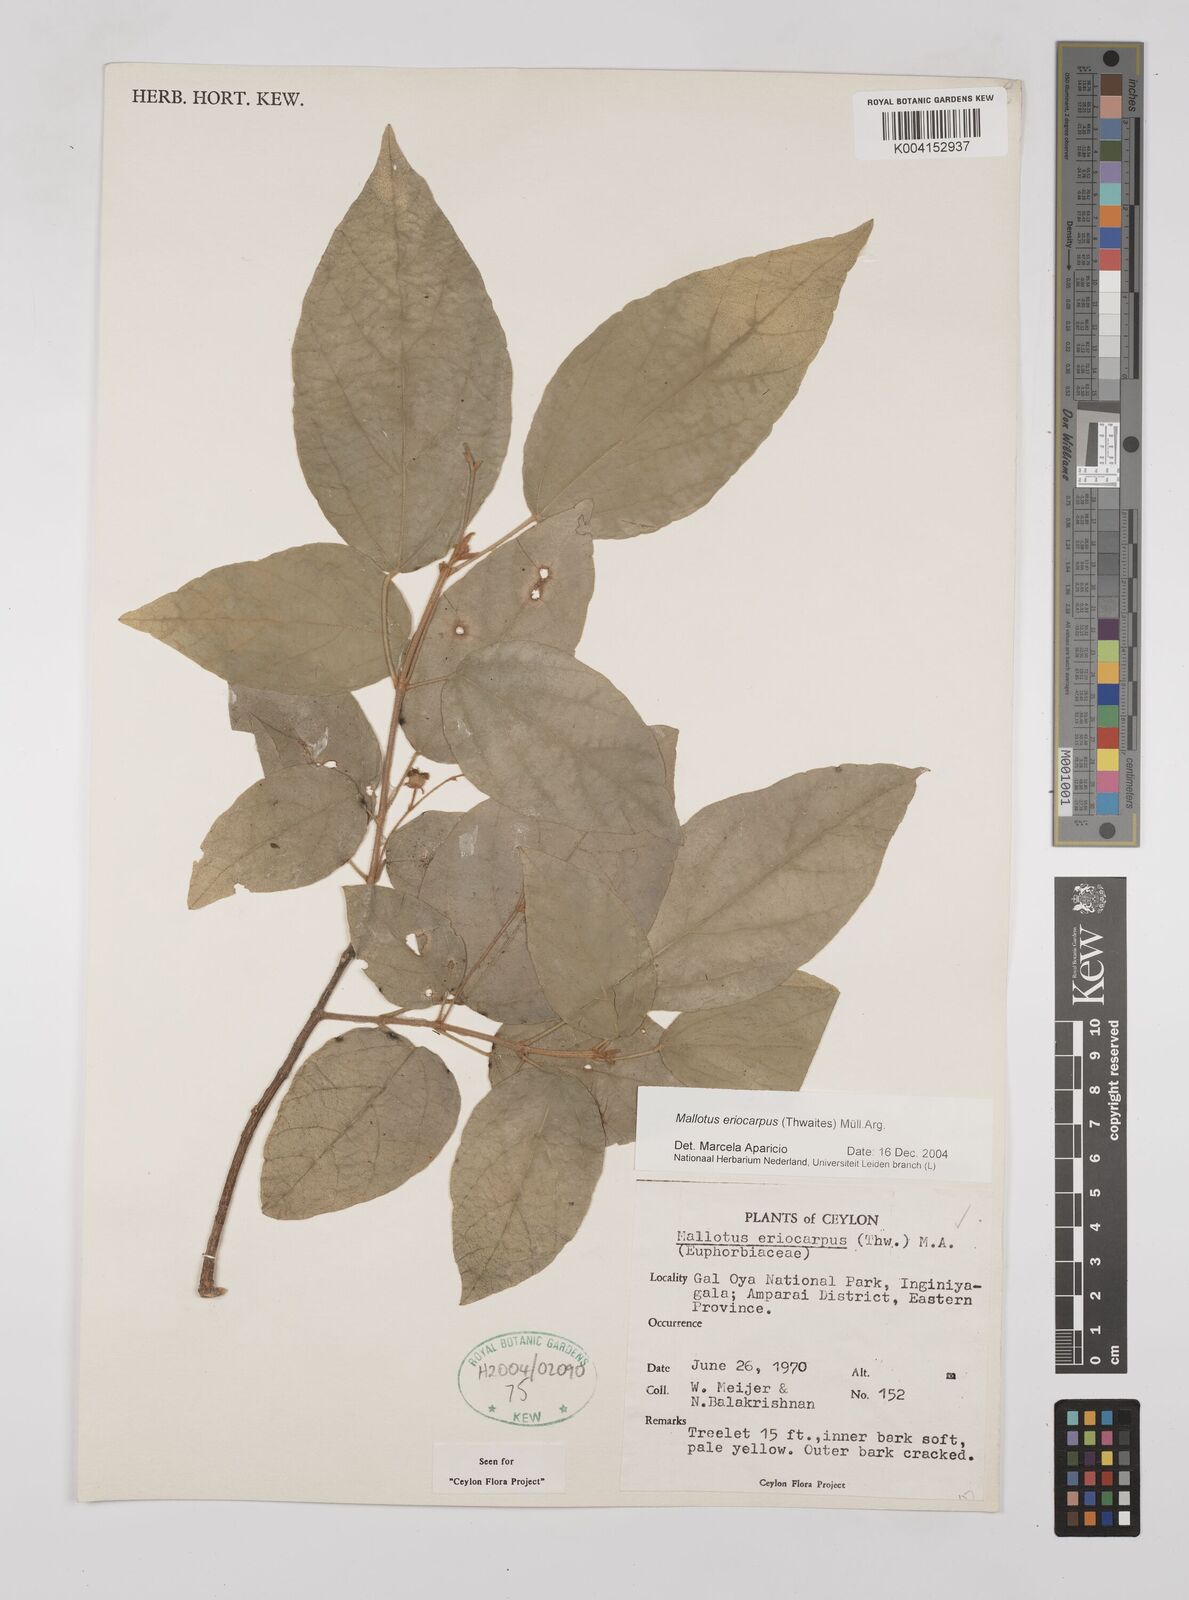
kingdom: Plantae
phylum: Tracheophyta
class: Magnoliopsida
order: Malpighiales
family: Euphorbiaceae
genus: Mallotus
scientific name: Mallotus eriocarpus
